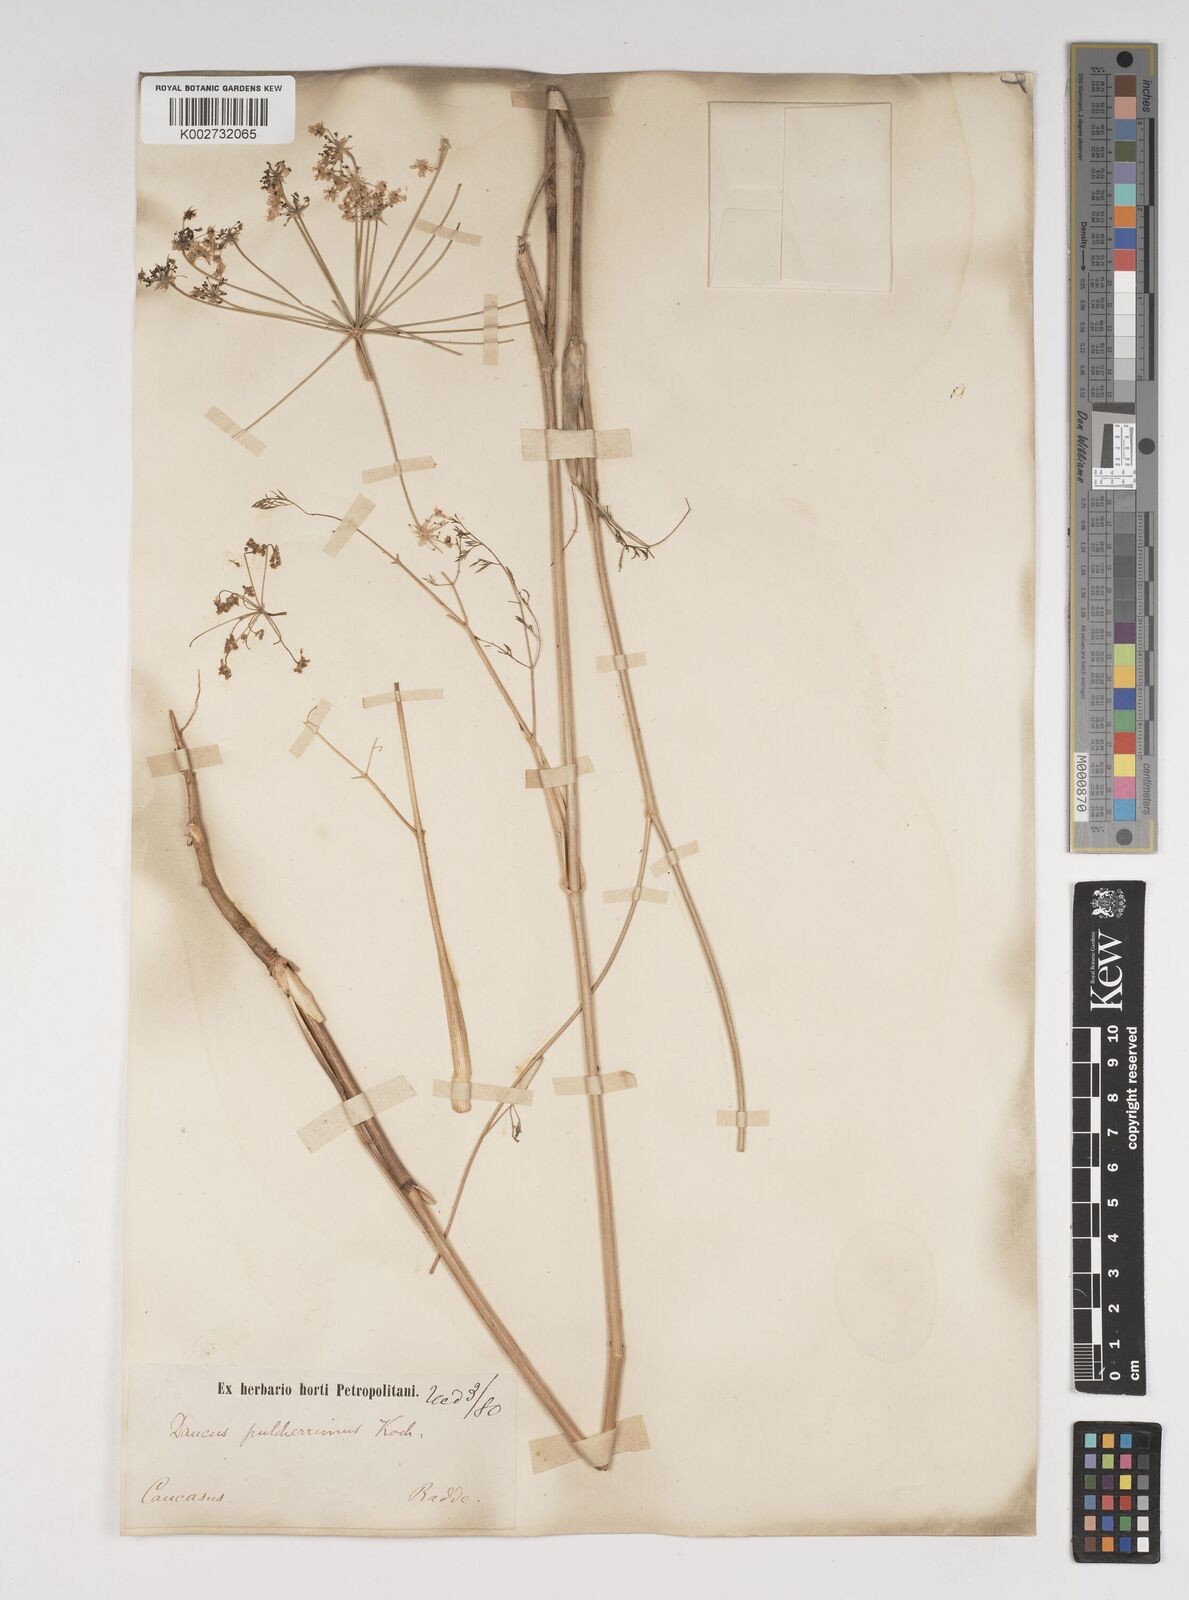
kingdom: Plantae
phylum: Tracheophyta
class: Magnoliopsida
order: Apiales
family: Apiaceae
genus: Astrodaucus
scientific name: Astrodaucus
